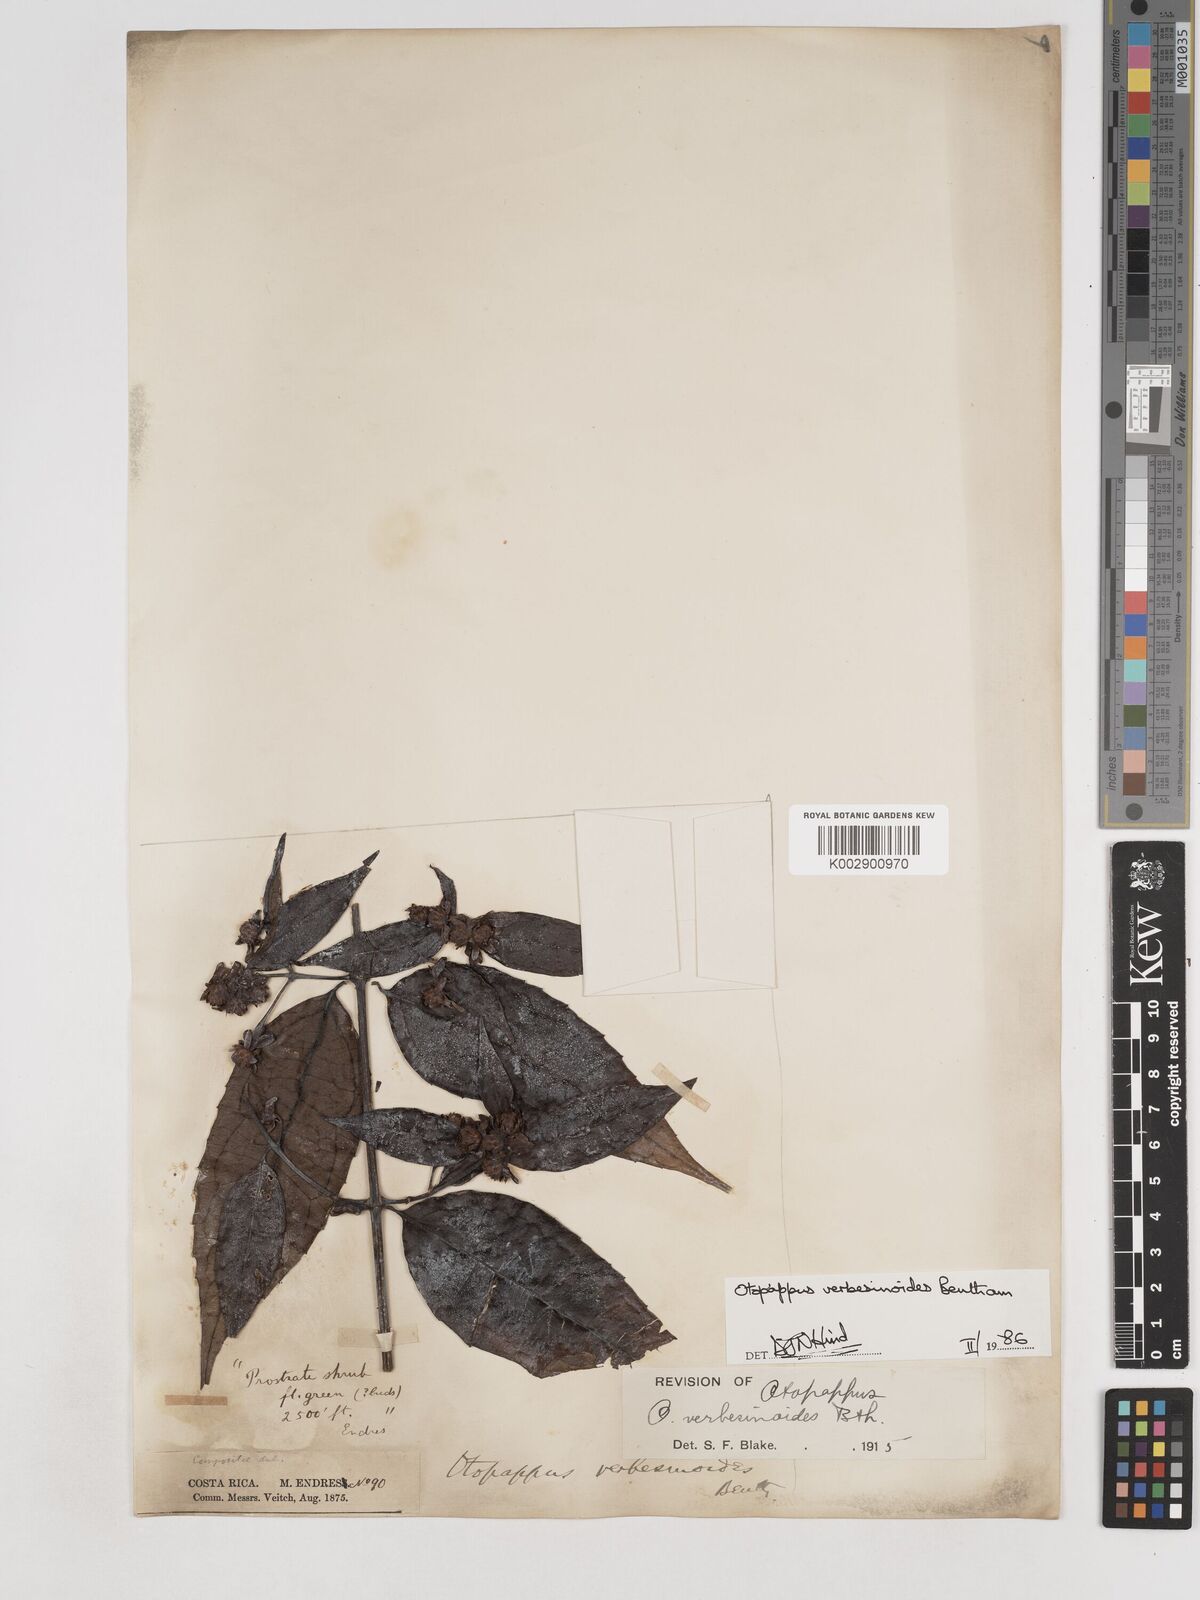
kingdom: Plantae
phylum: Tracheophyta
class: Magnoliopsida
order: Asterales
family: Asteraceae
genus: Otopappus
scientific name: Otopappus verbesinoides
